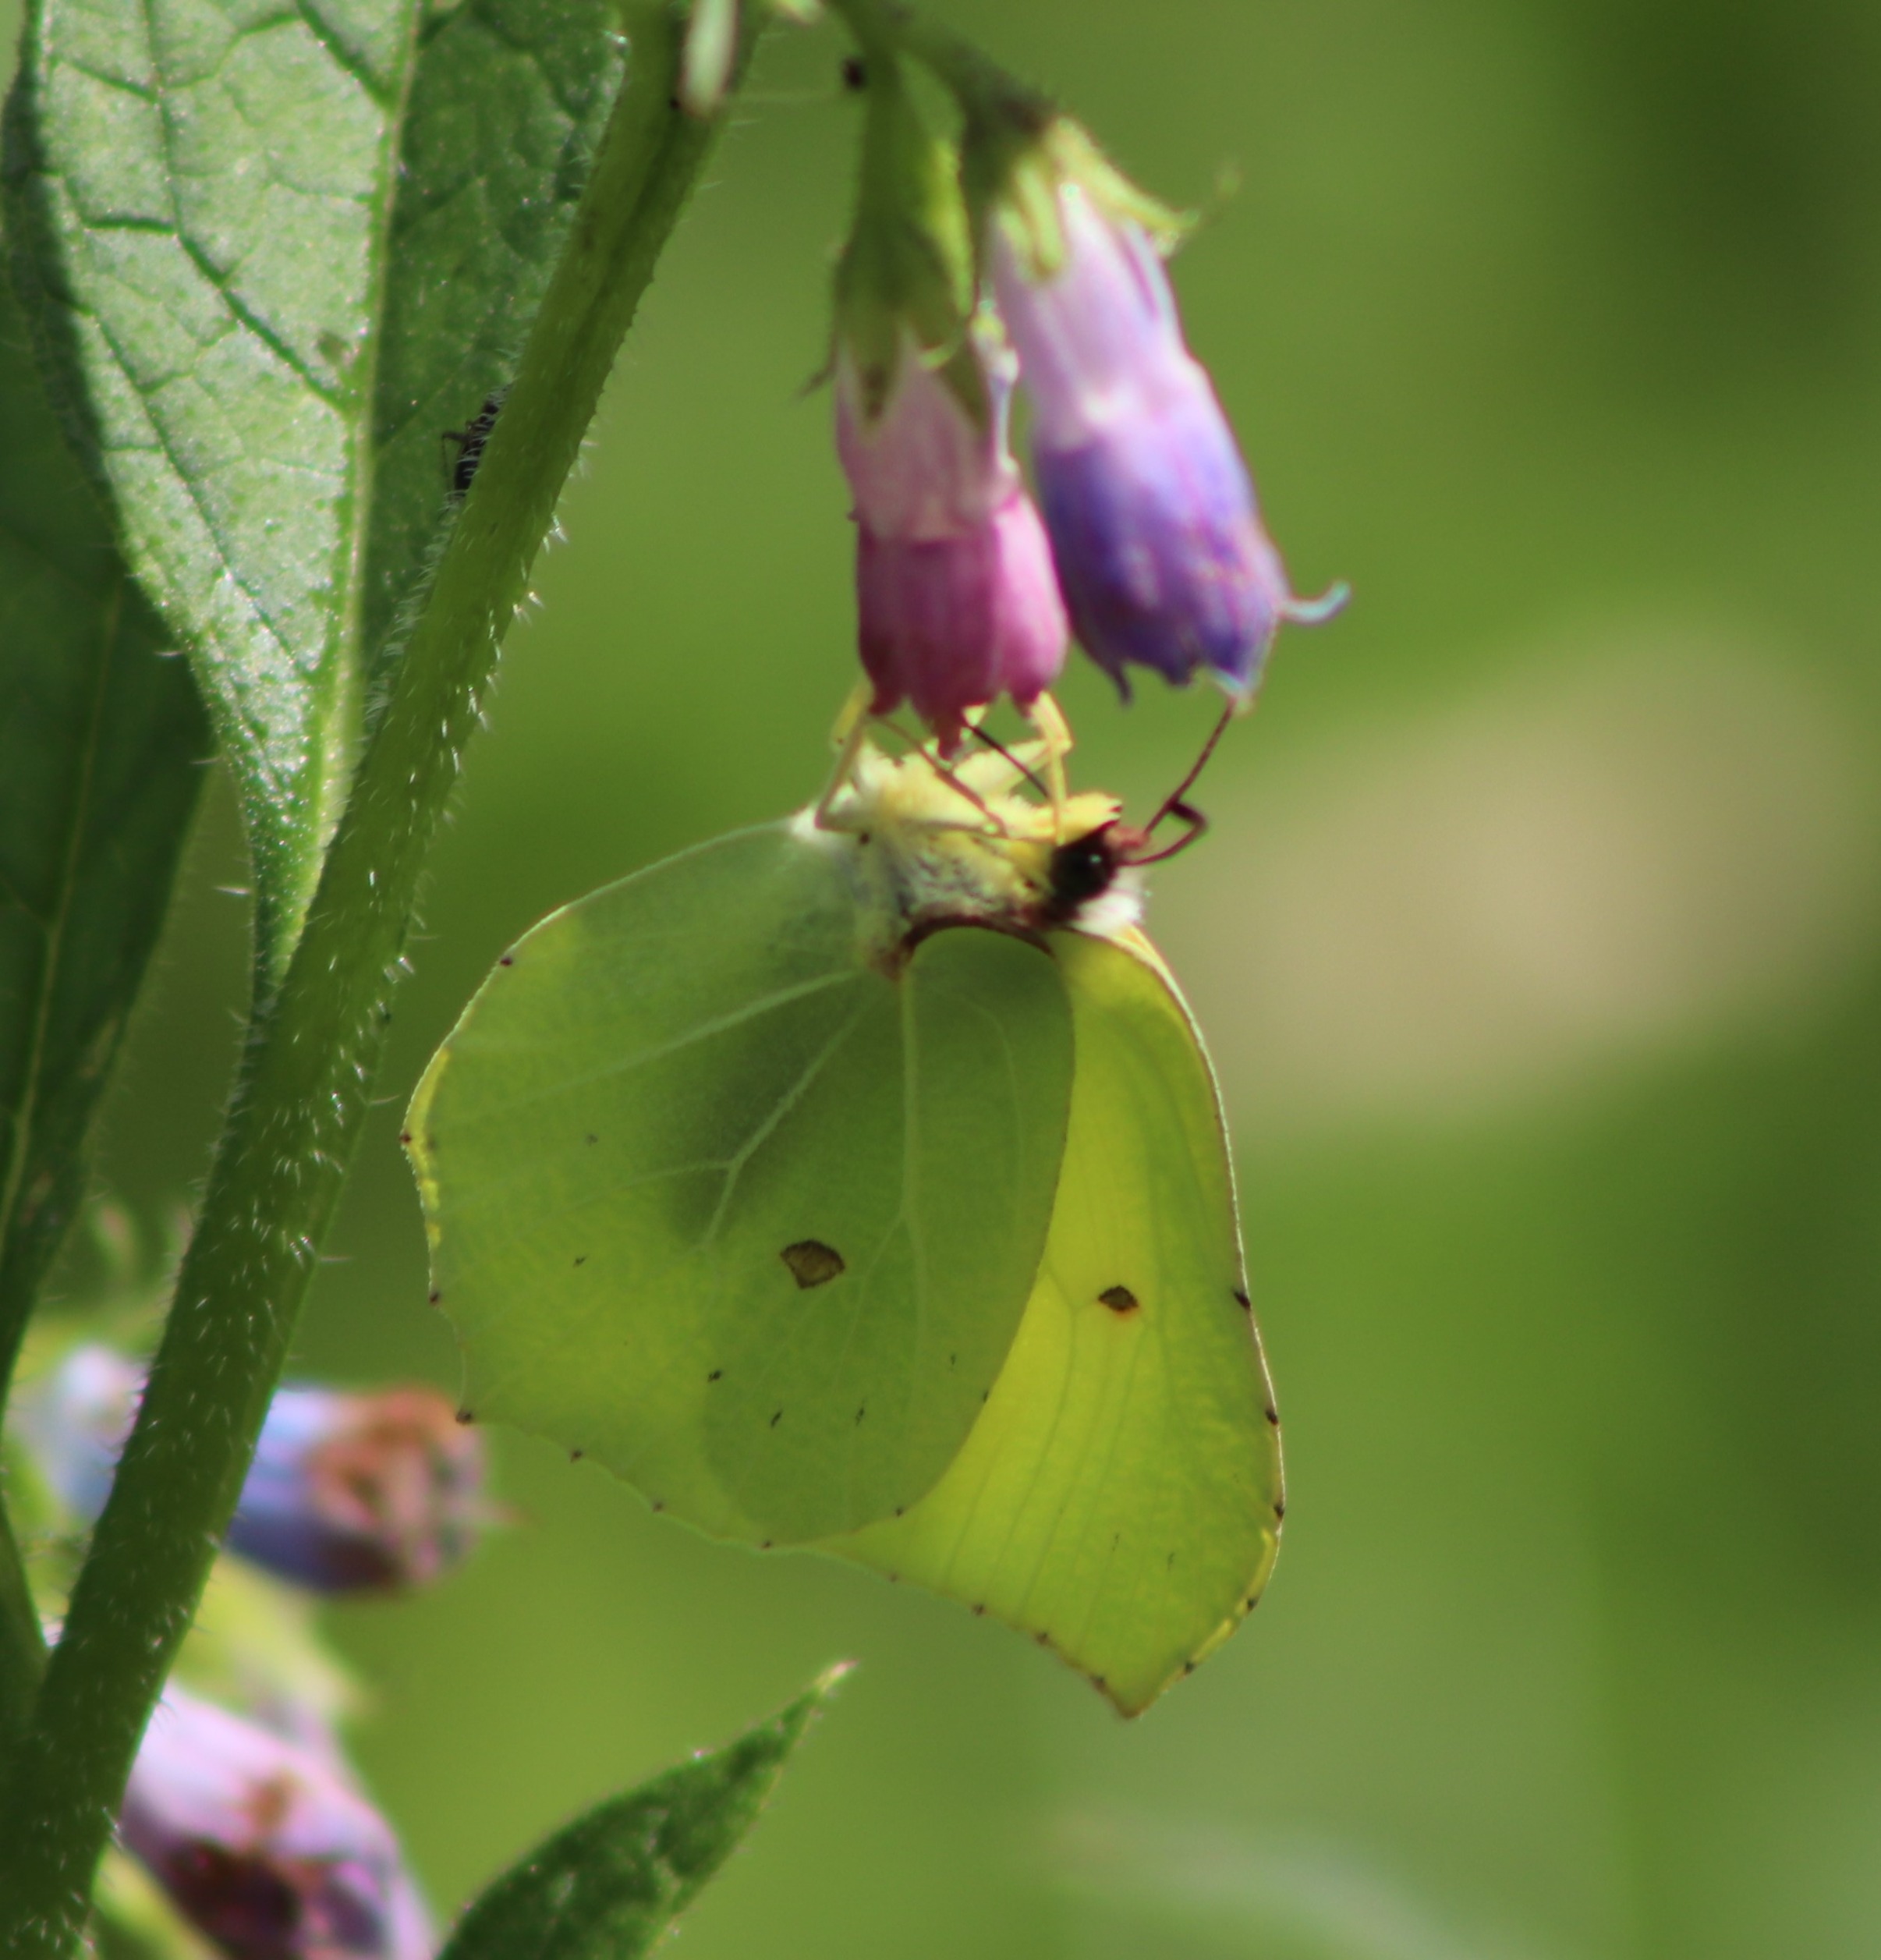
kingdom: Animalia
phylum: Arthropoda
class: Insecta
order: Lepidoptera
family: Pieridae
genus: Gonepteryx
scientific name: Gonepteryx rhamni
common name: Citronsommerfugl
